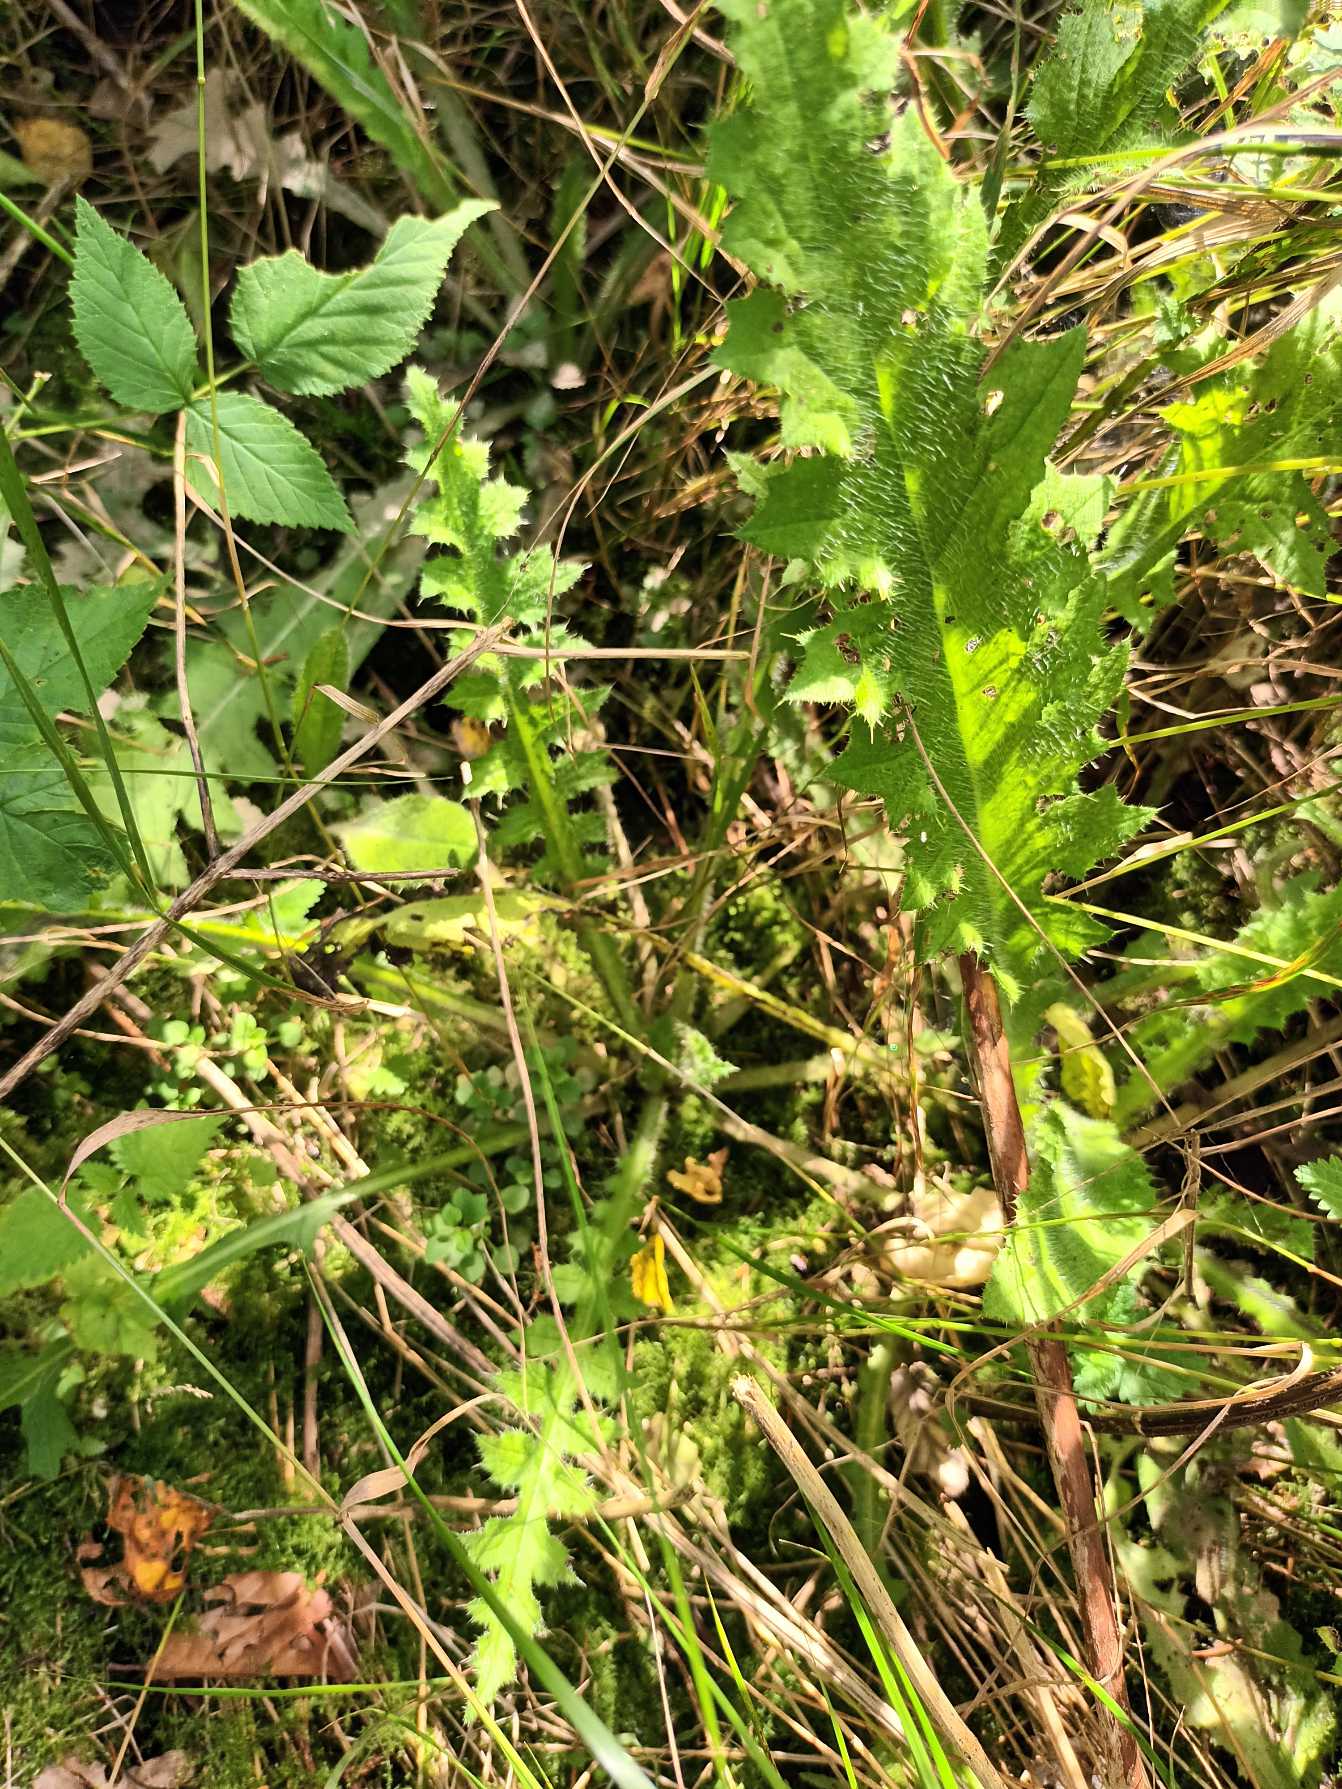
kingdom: Plantae
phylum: Tracheophyta
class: Magnoliopsida
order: Asterales
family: Asteraceae
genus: Cirsium
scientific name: Cirsium palustre
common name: Kær-tidsel
